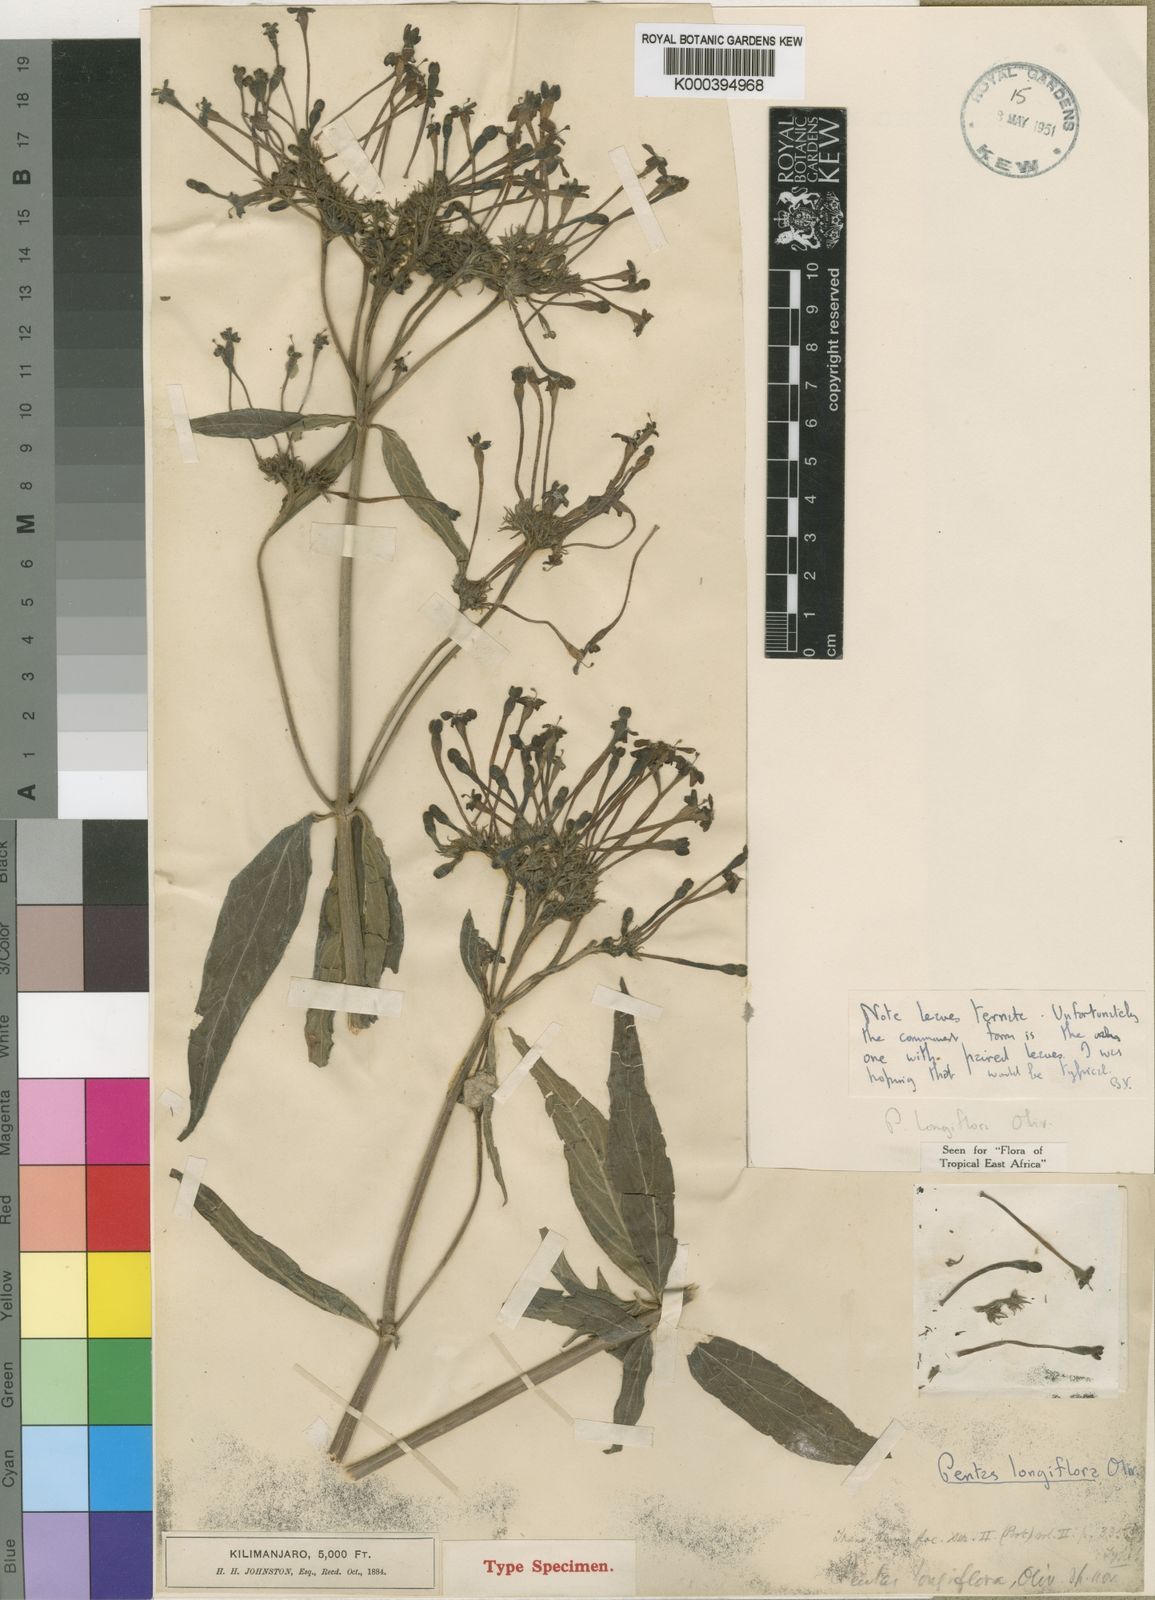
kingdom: Plantae
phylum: Tracheophyta
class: Magnoliopsida
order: Gentianales
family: Rubiaceae
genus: Dolichopentas
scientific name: Dolichopentas
